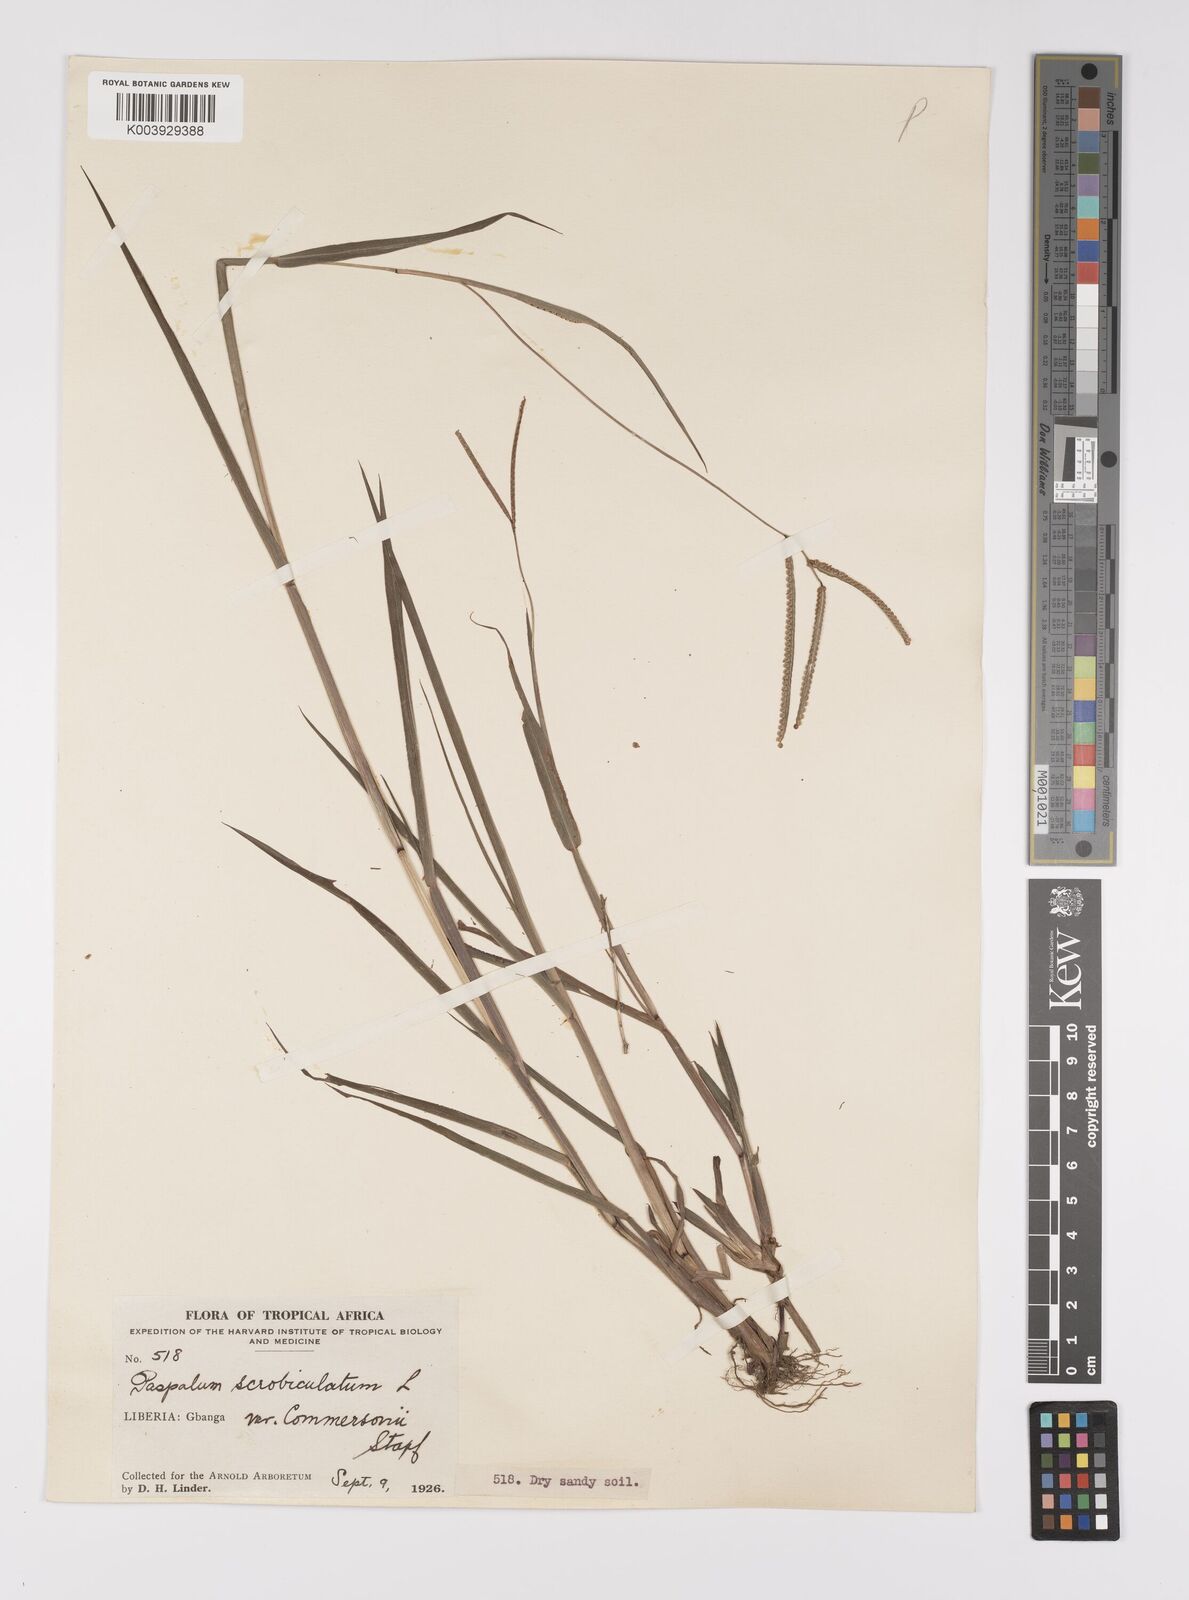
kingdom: Plantae
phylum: Tracheophyta
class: Liliopsida
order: Poales
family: Poaceae
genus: Paspalum
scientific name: Paspalum scrobiculatum
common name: Kodo millet
